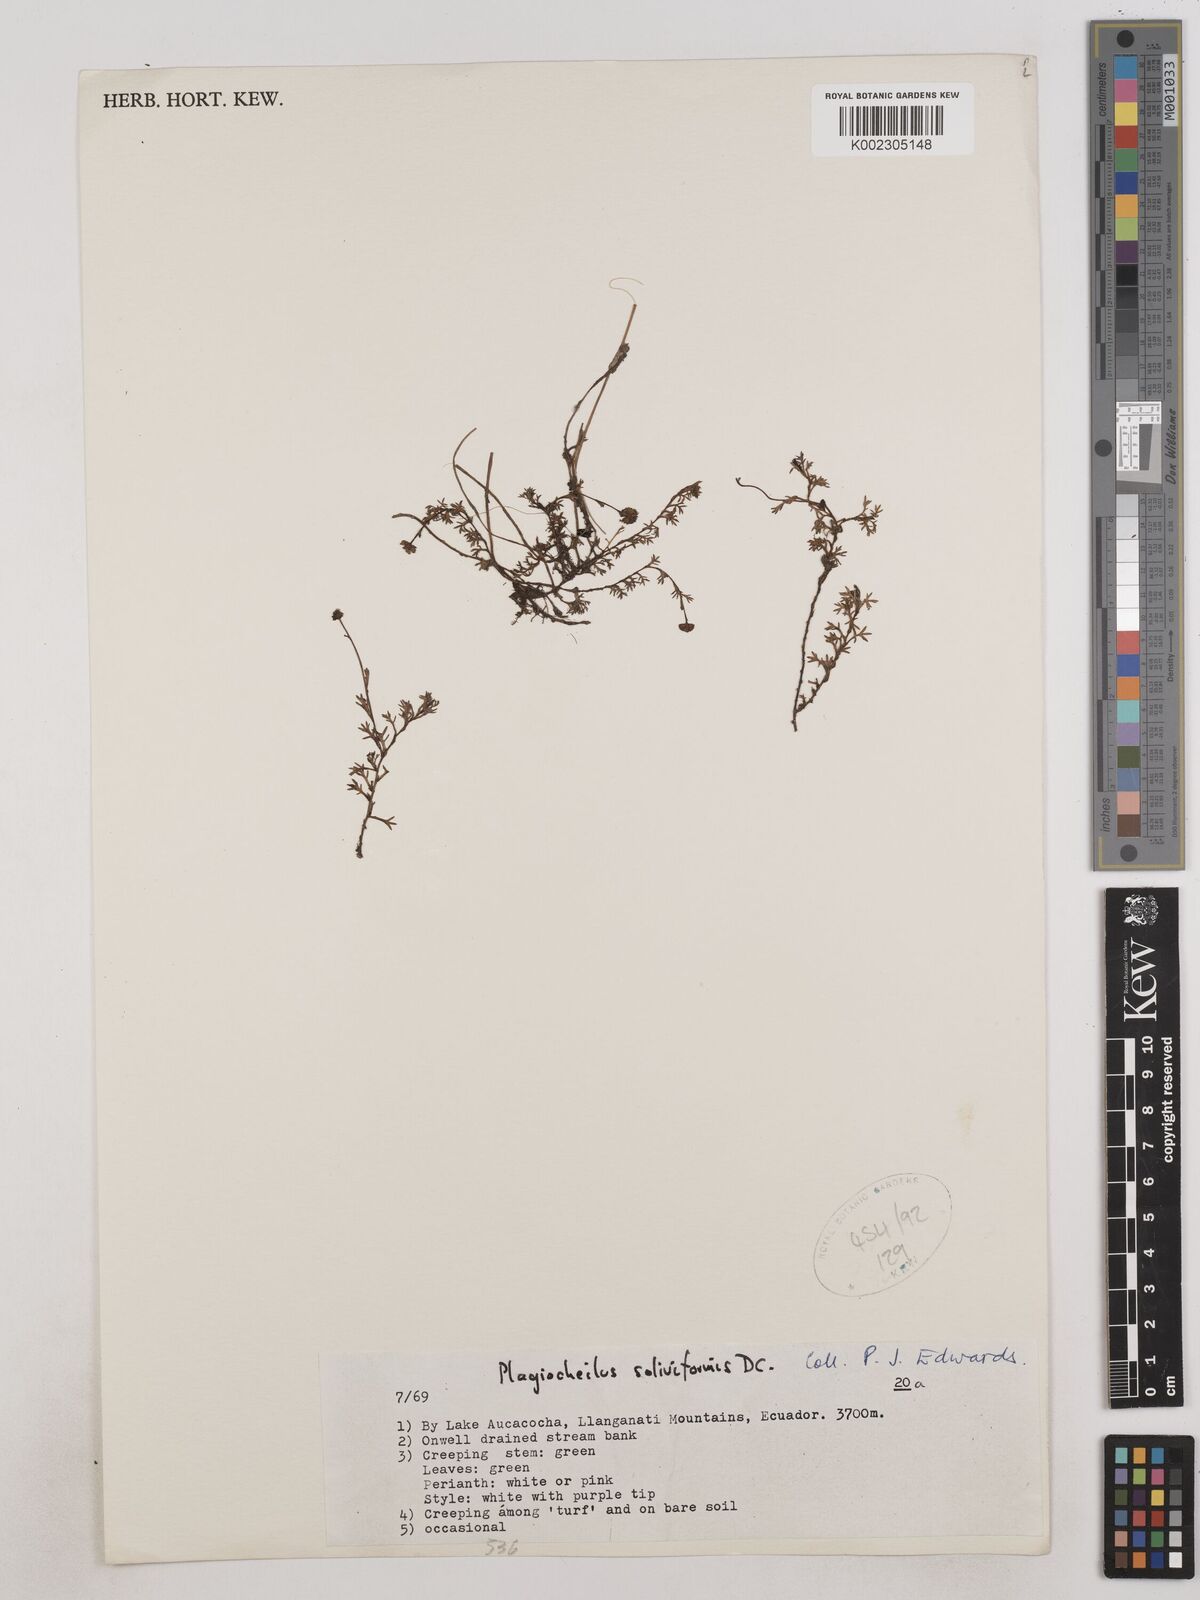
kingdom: Plantae
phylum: Tracheophyta
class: Magnoliopsida
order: Asterales
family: Asteraceae
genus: Plagiocheilus
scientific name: Plagiocheilus soliviformis
